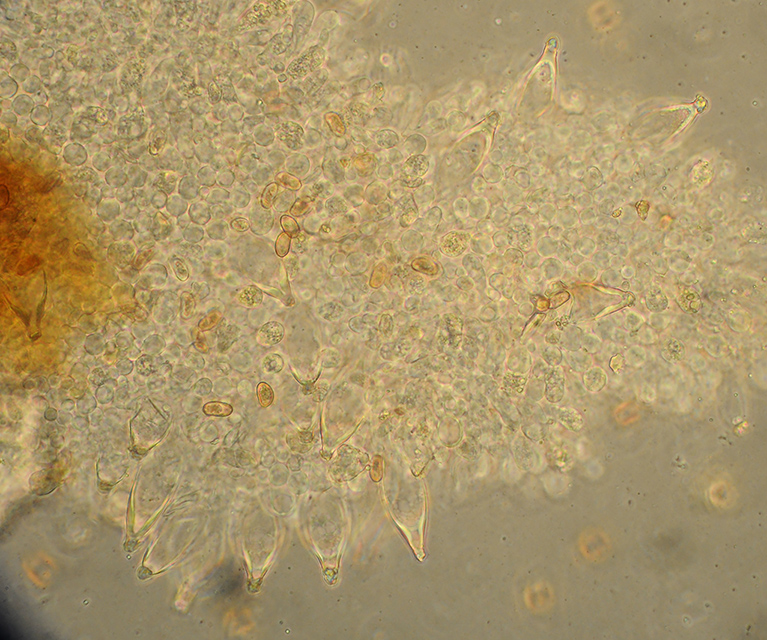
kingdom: Fungi
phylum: Basidiomycota
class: Agaricomycetes
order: Agaricales
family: Psathyrellaceae
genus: Homophron
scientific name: Homophron spadiceum
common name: daddelbrun mørkhat
